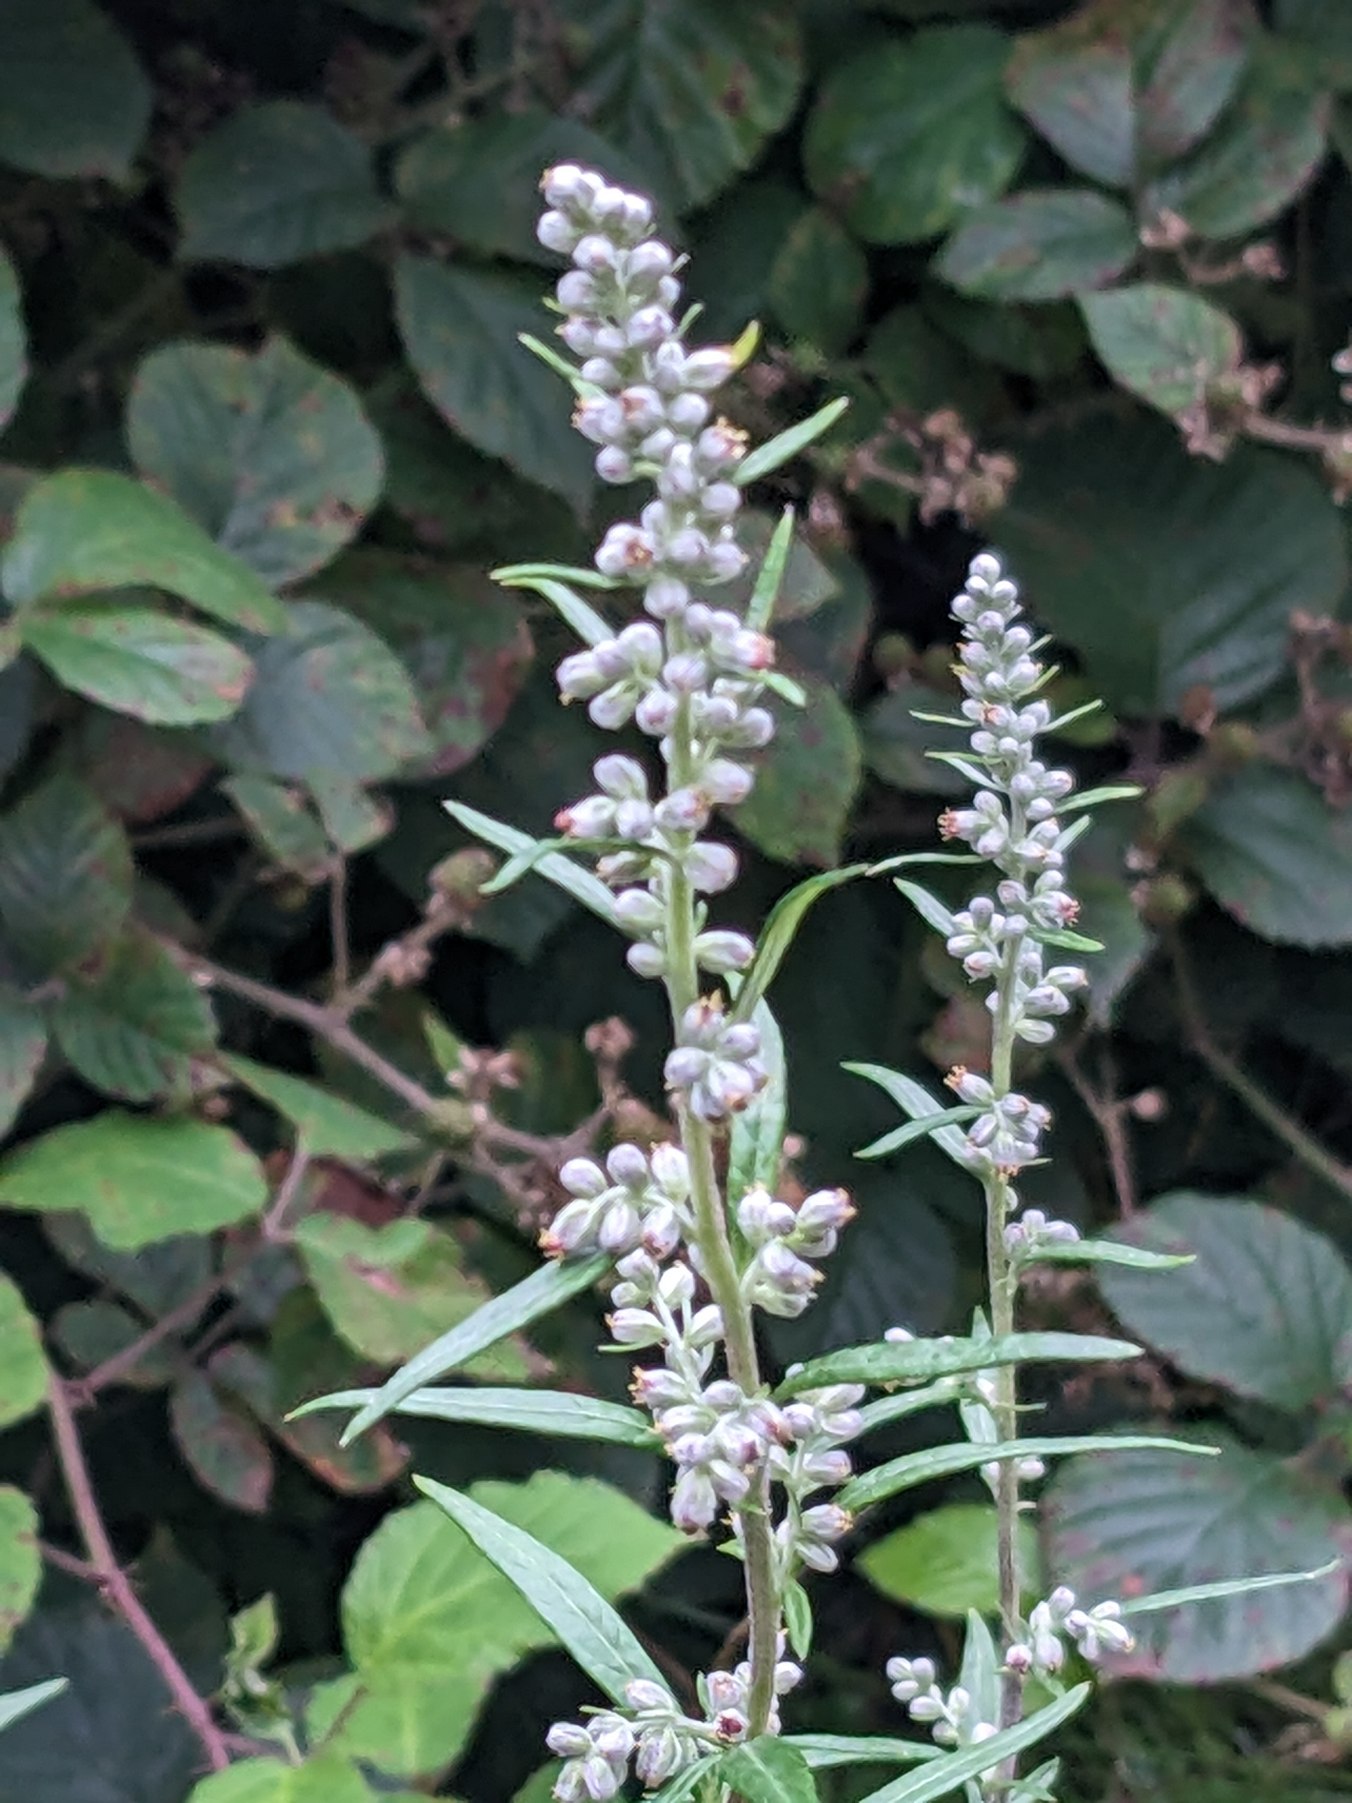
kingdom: Plantae
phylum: Tracheophyta
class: Magnoliopsida
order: Asterales
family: Asteraceae
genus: Artemisia
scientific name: Artemisia vulgaris
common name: Grå-bynke
